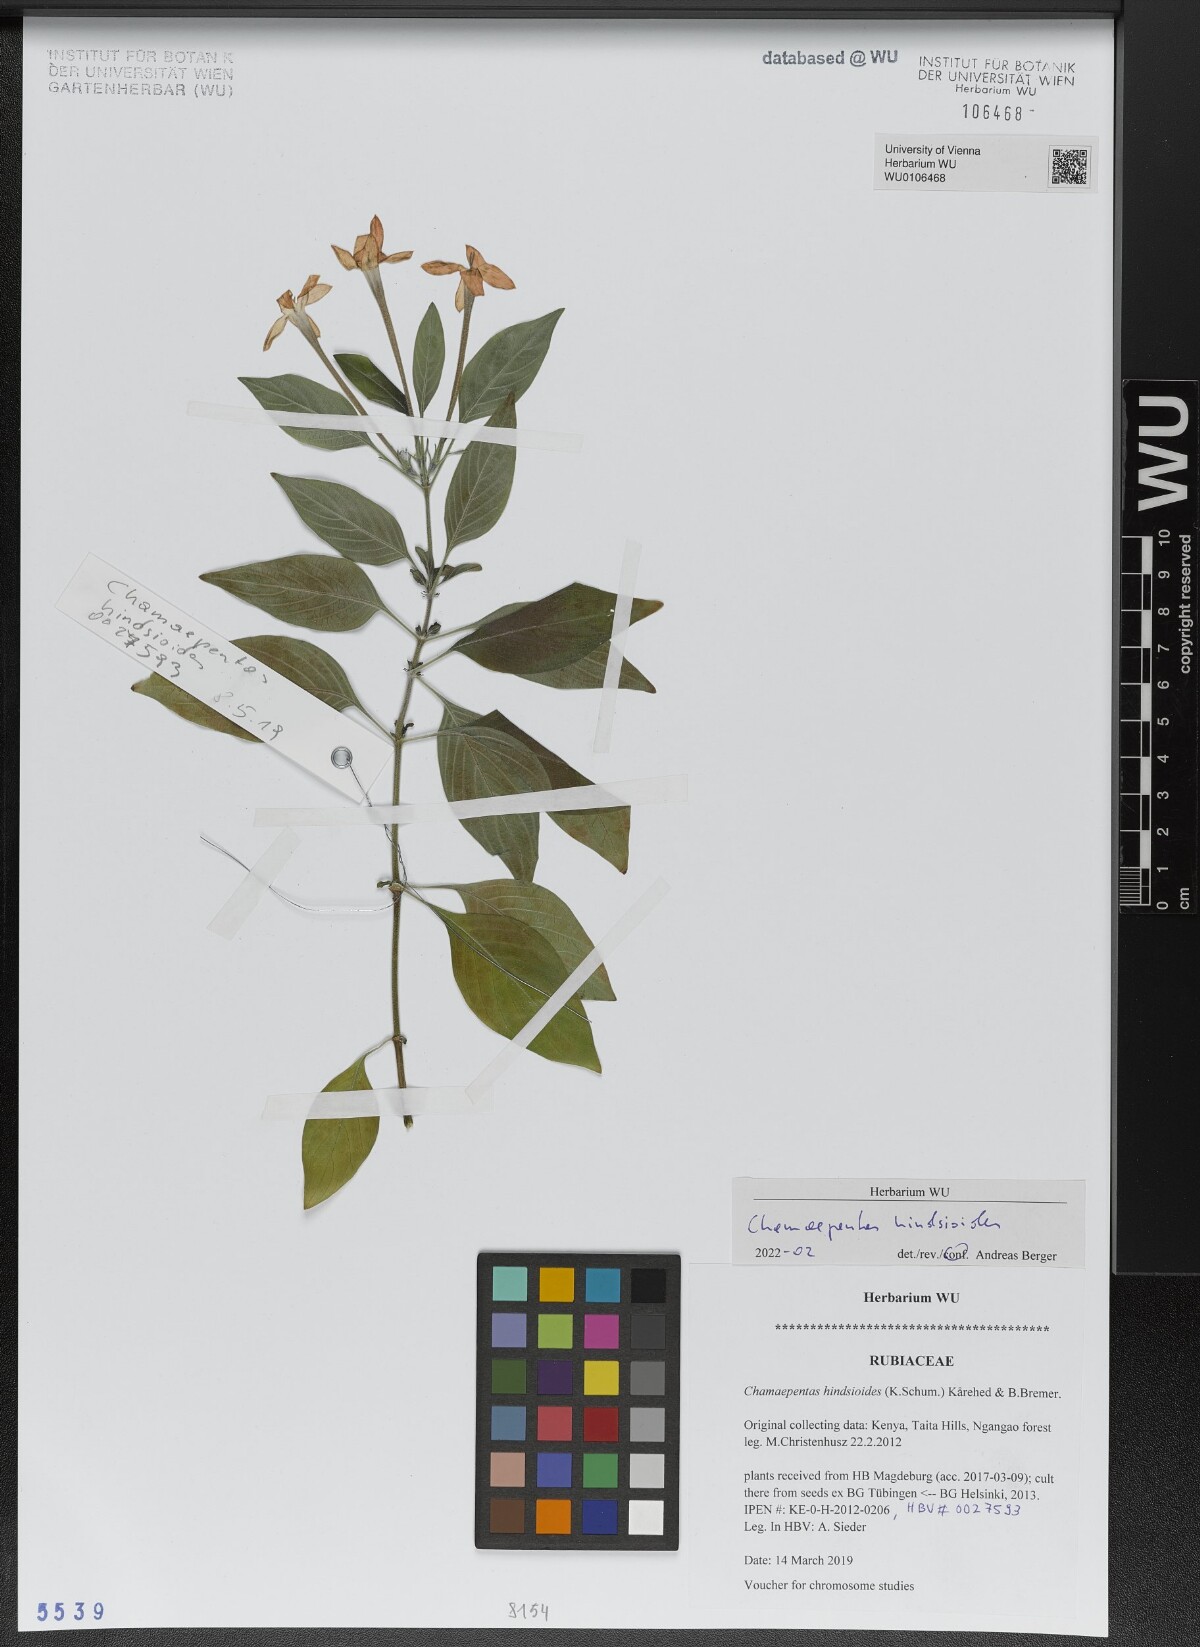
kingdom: Plantae
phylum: Tracheophyta
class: Magnoliopsida
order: Gentianales
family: Rubiaceae
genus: Chamaepentas
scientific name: Chamaepentas hindsioides
